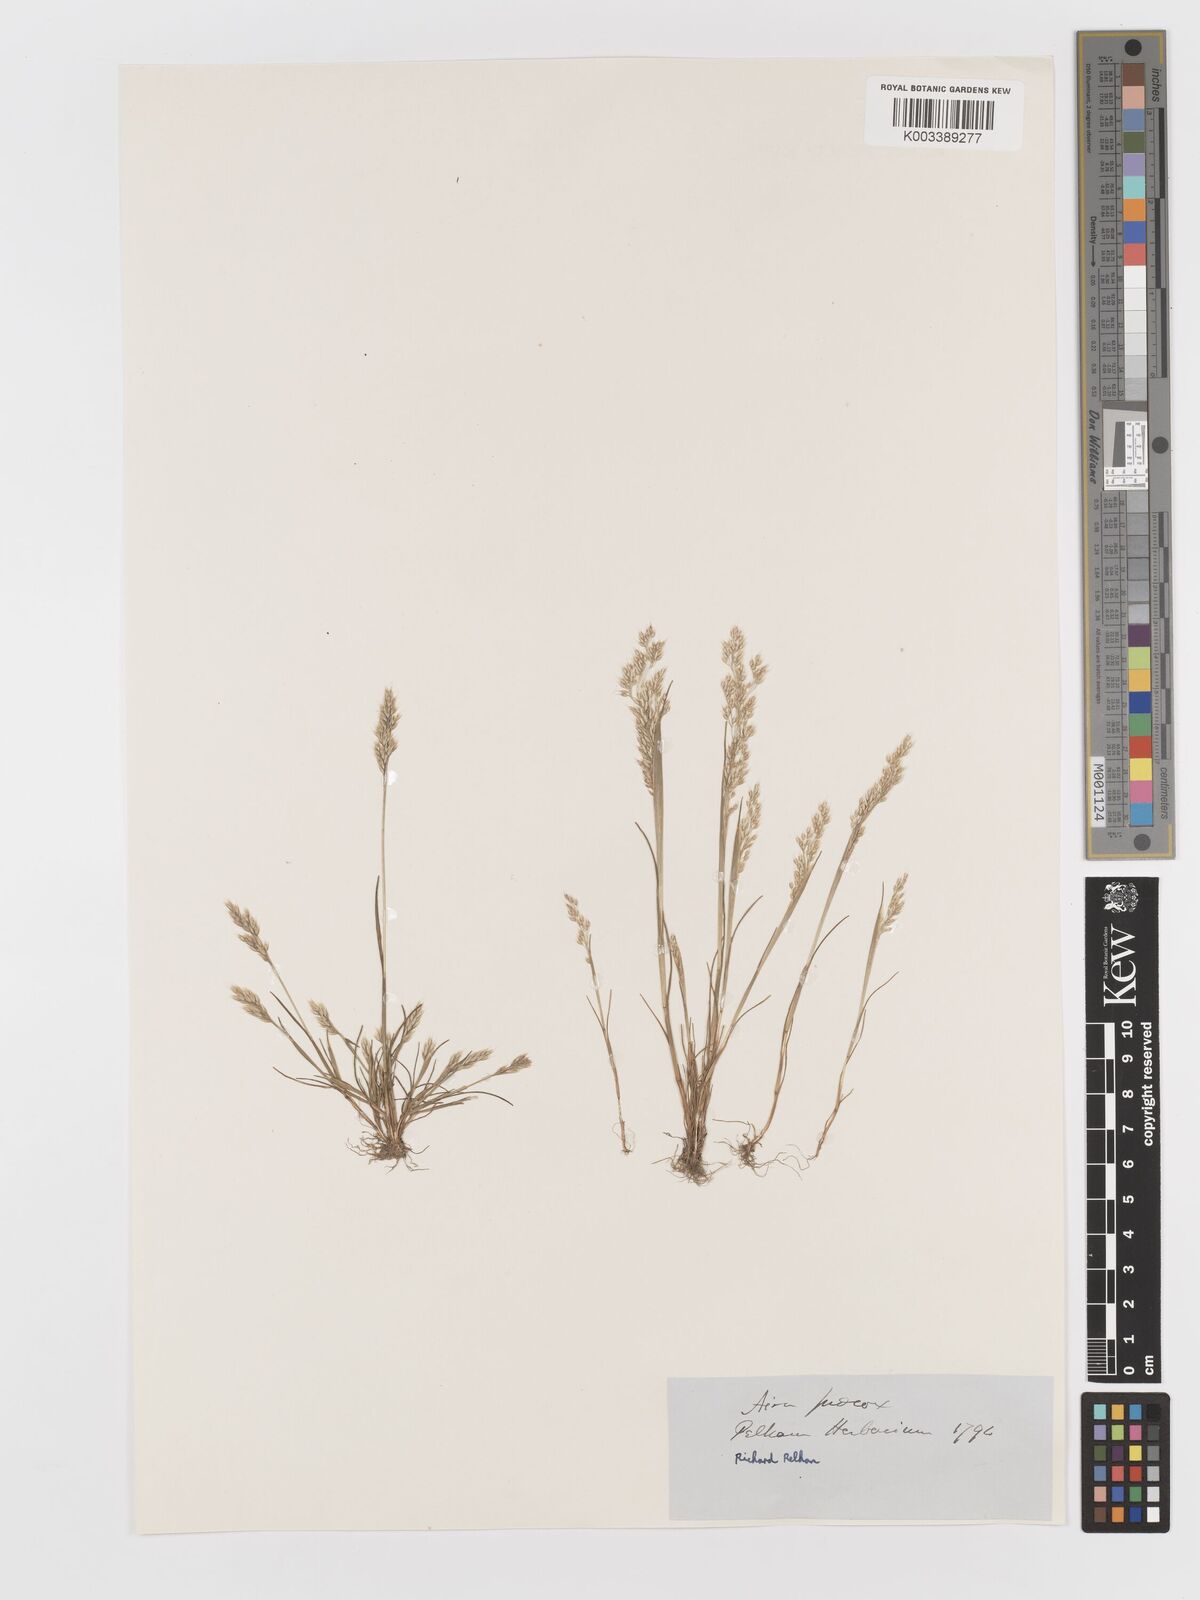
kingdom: Plantae
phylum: Tracheophyta
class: Liliopsida
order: Poales
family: Poaceae
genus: Aira
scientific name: Aira praecox
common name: Early hair-grass
